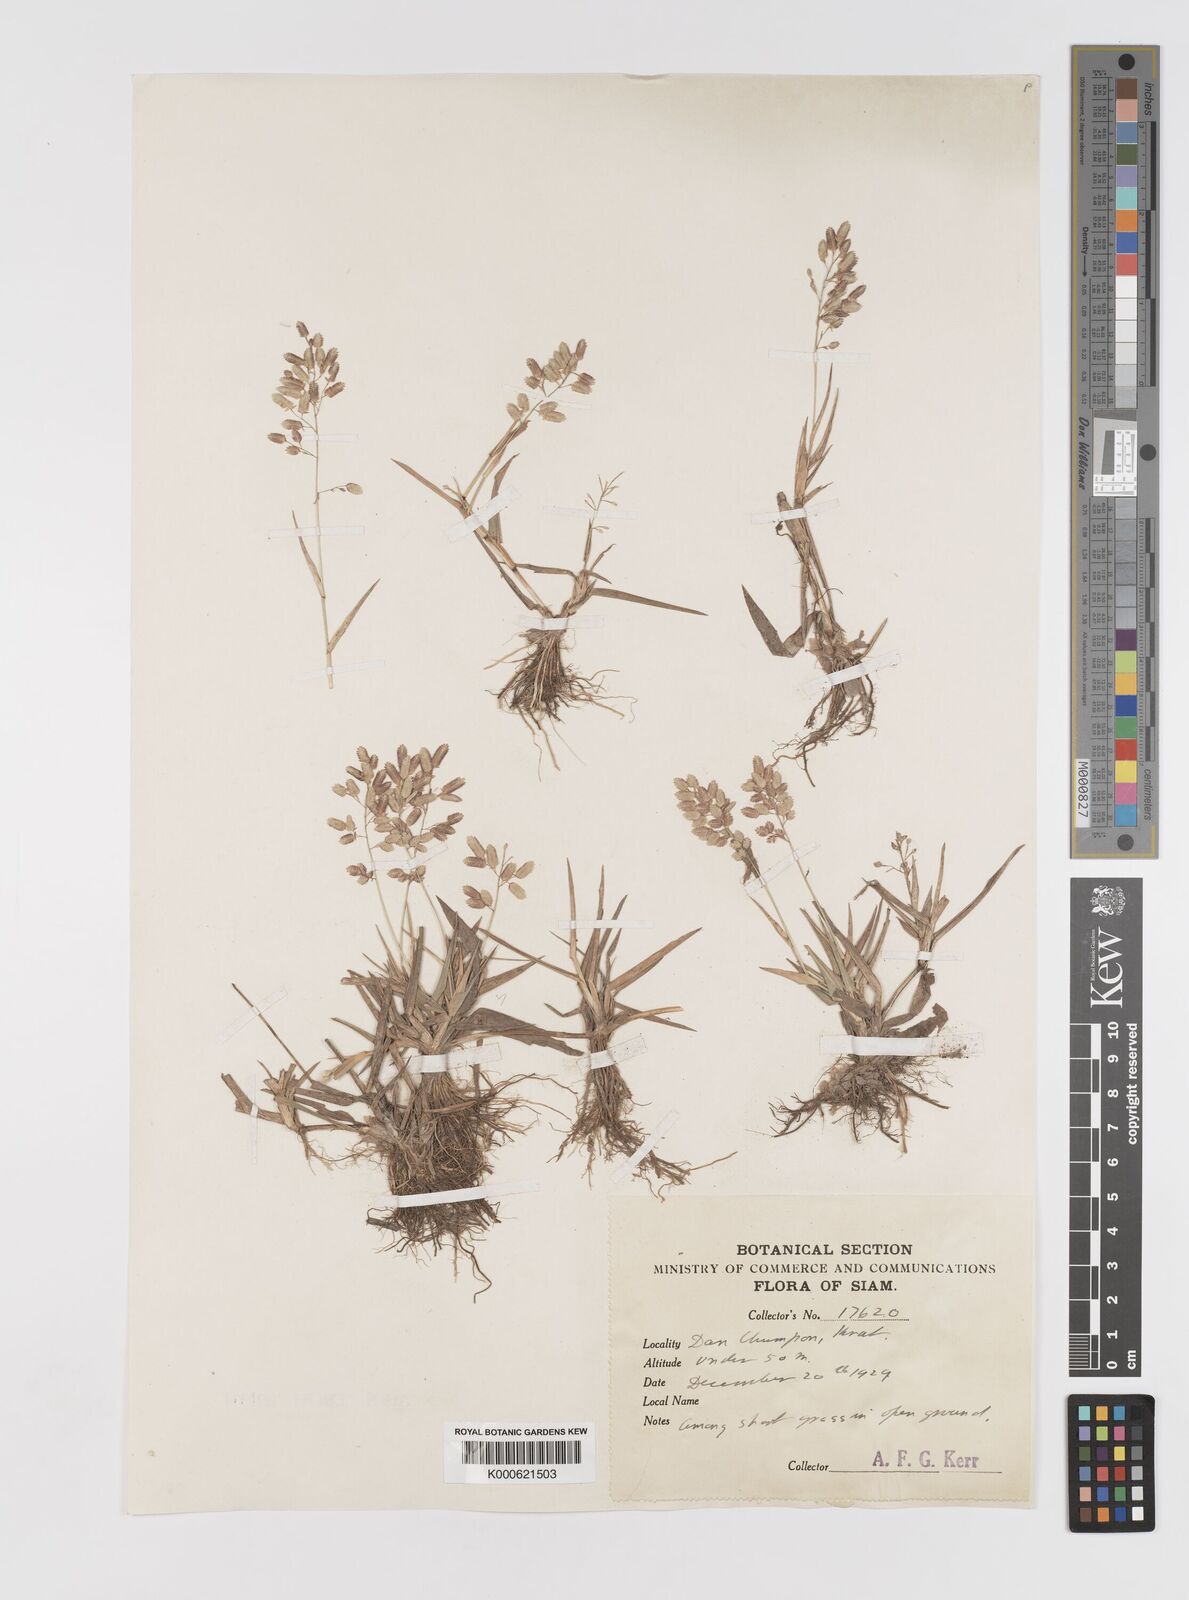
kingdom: Plantae
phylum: Tracheophyta
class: Liliopsida
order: Poales
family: Poaceae
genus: Eragrostis
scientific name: Eragrostis unioloides
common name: Chinese lovegrass
